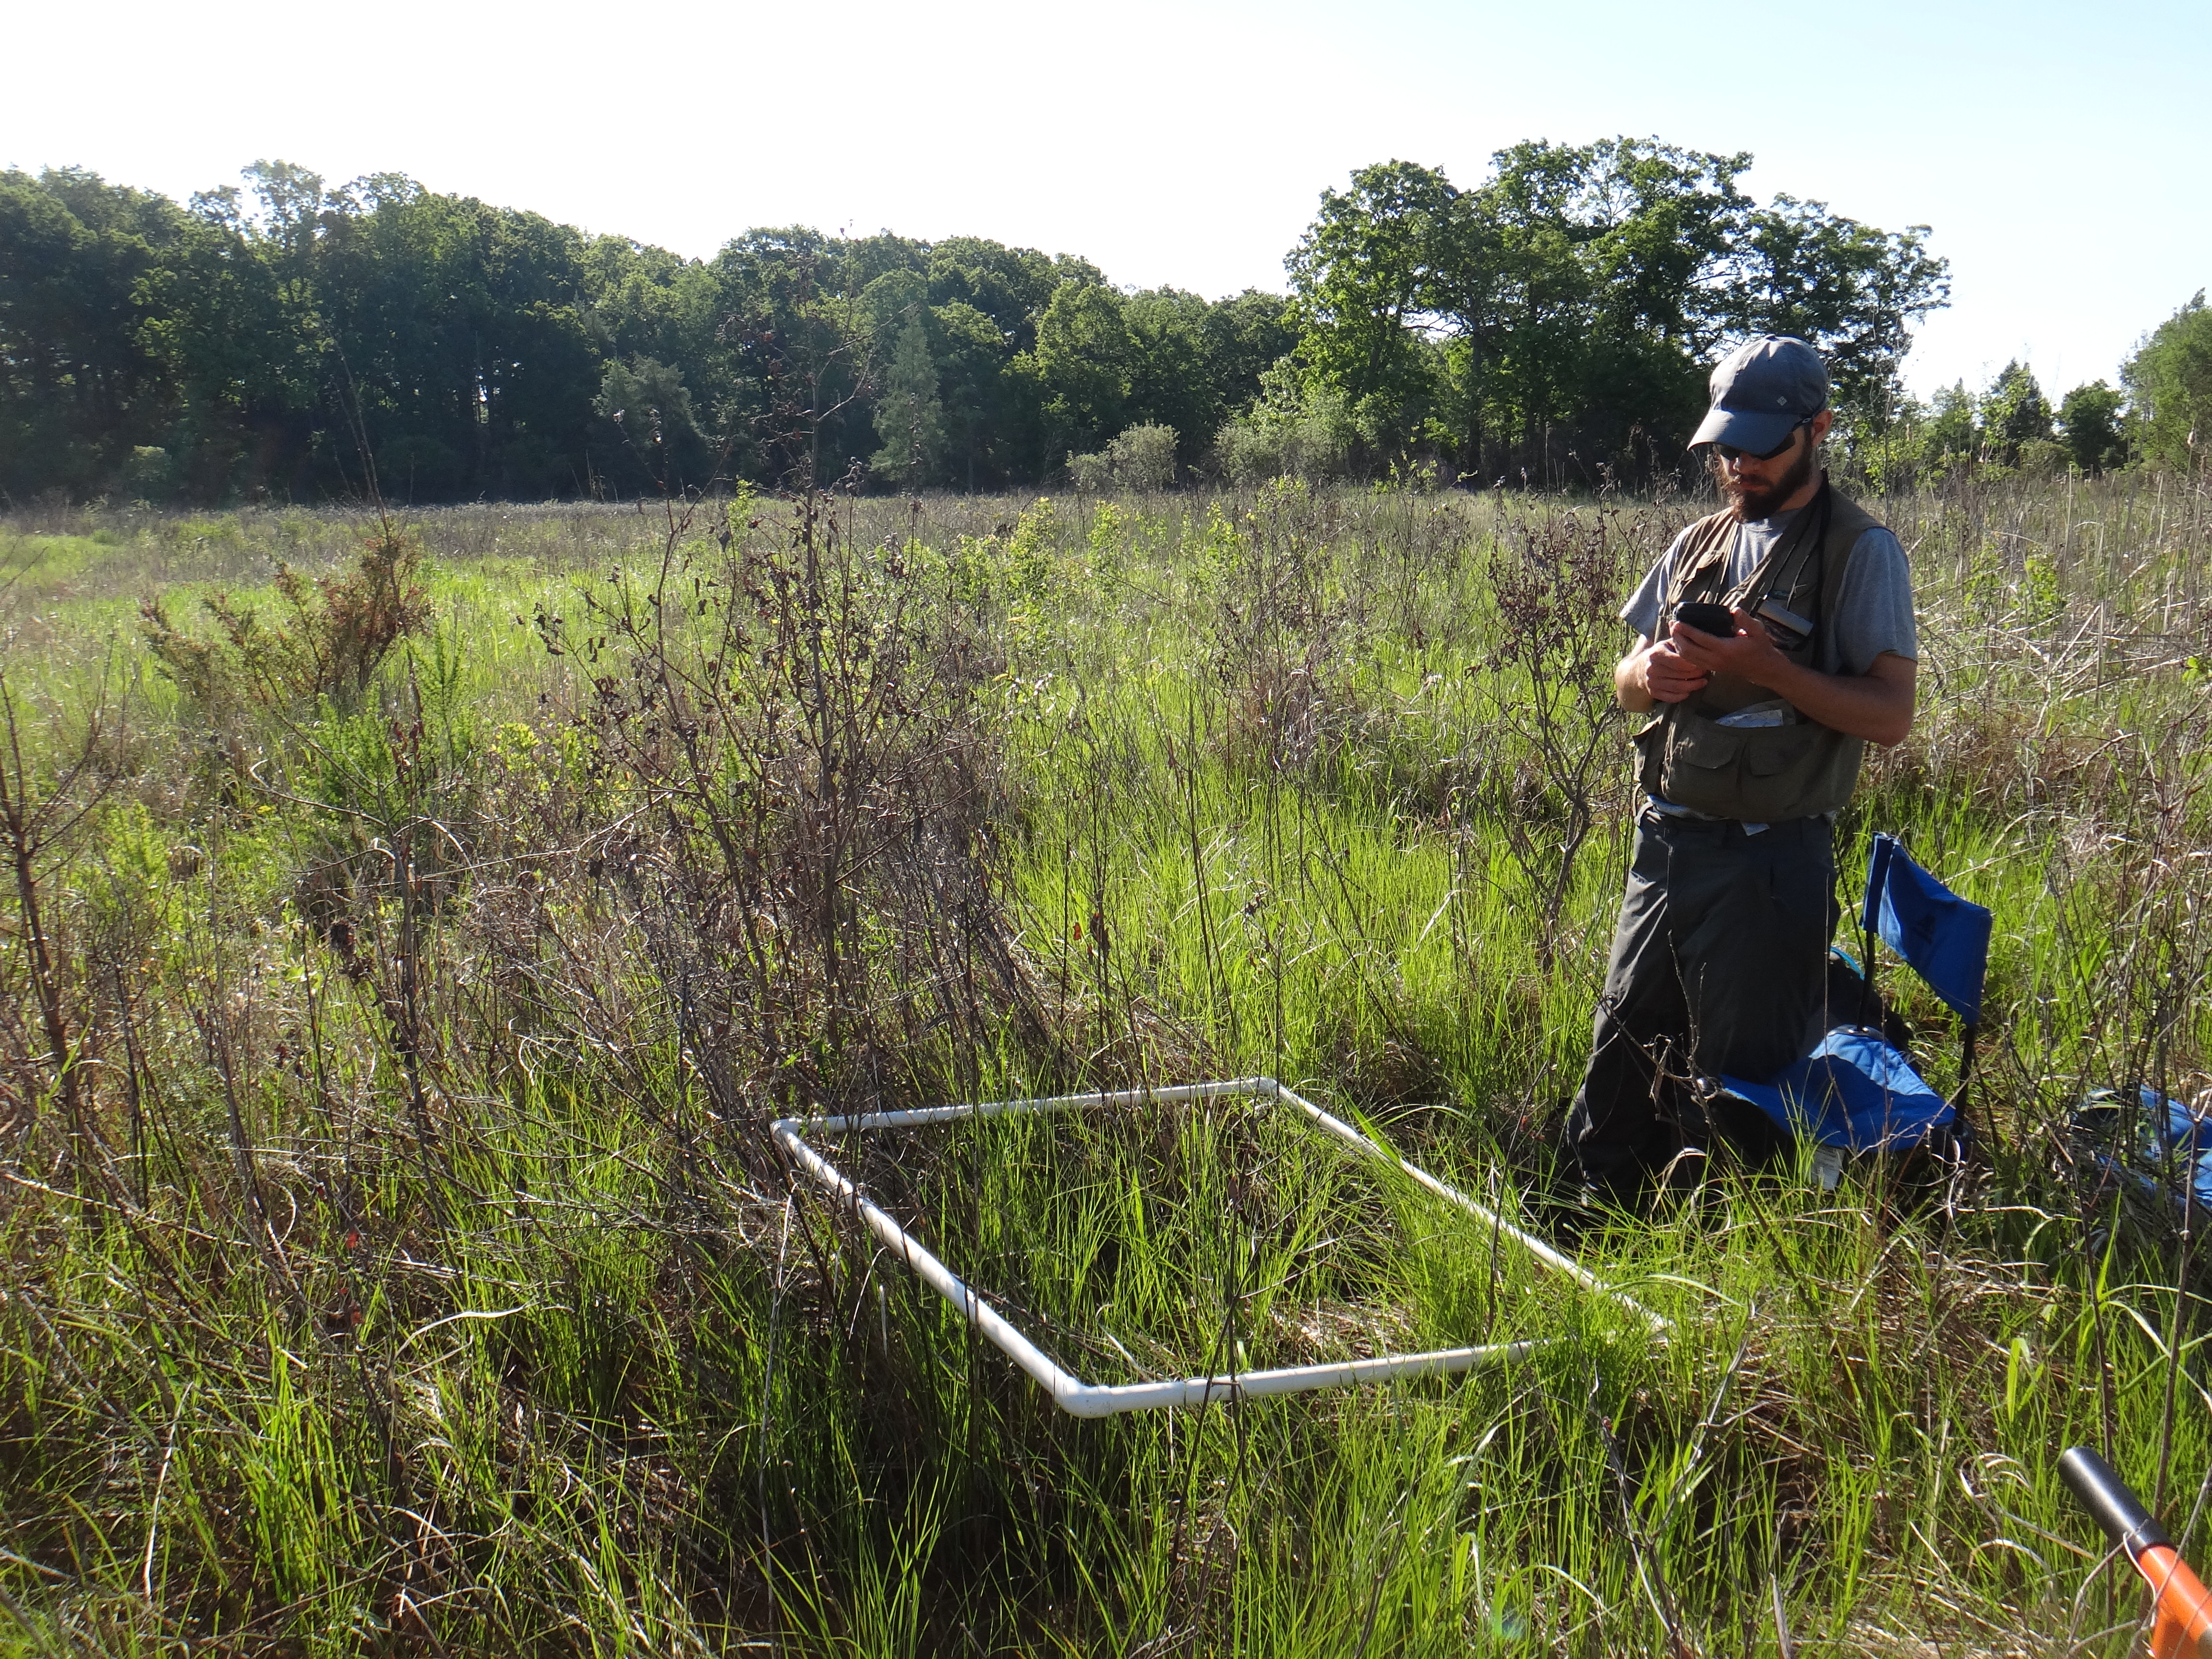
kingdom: Plantae
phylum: Tracheophyta
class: Liliopsida
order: Poales
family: Poaceae
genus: Agrostis
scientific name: Agrostis gigantea
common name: Black bent
